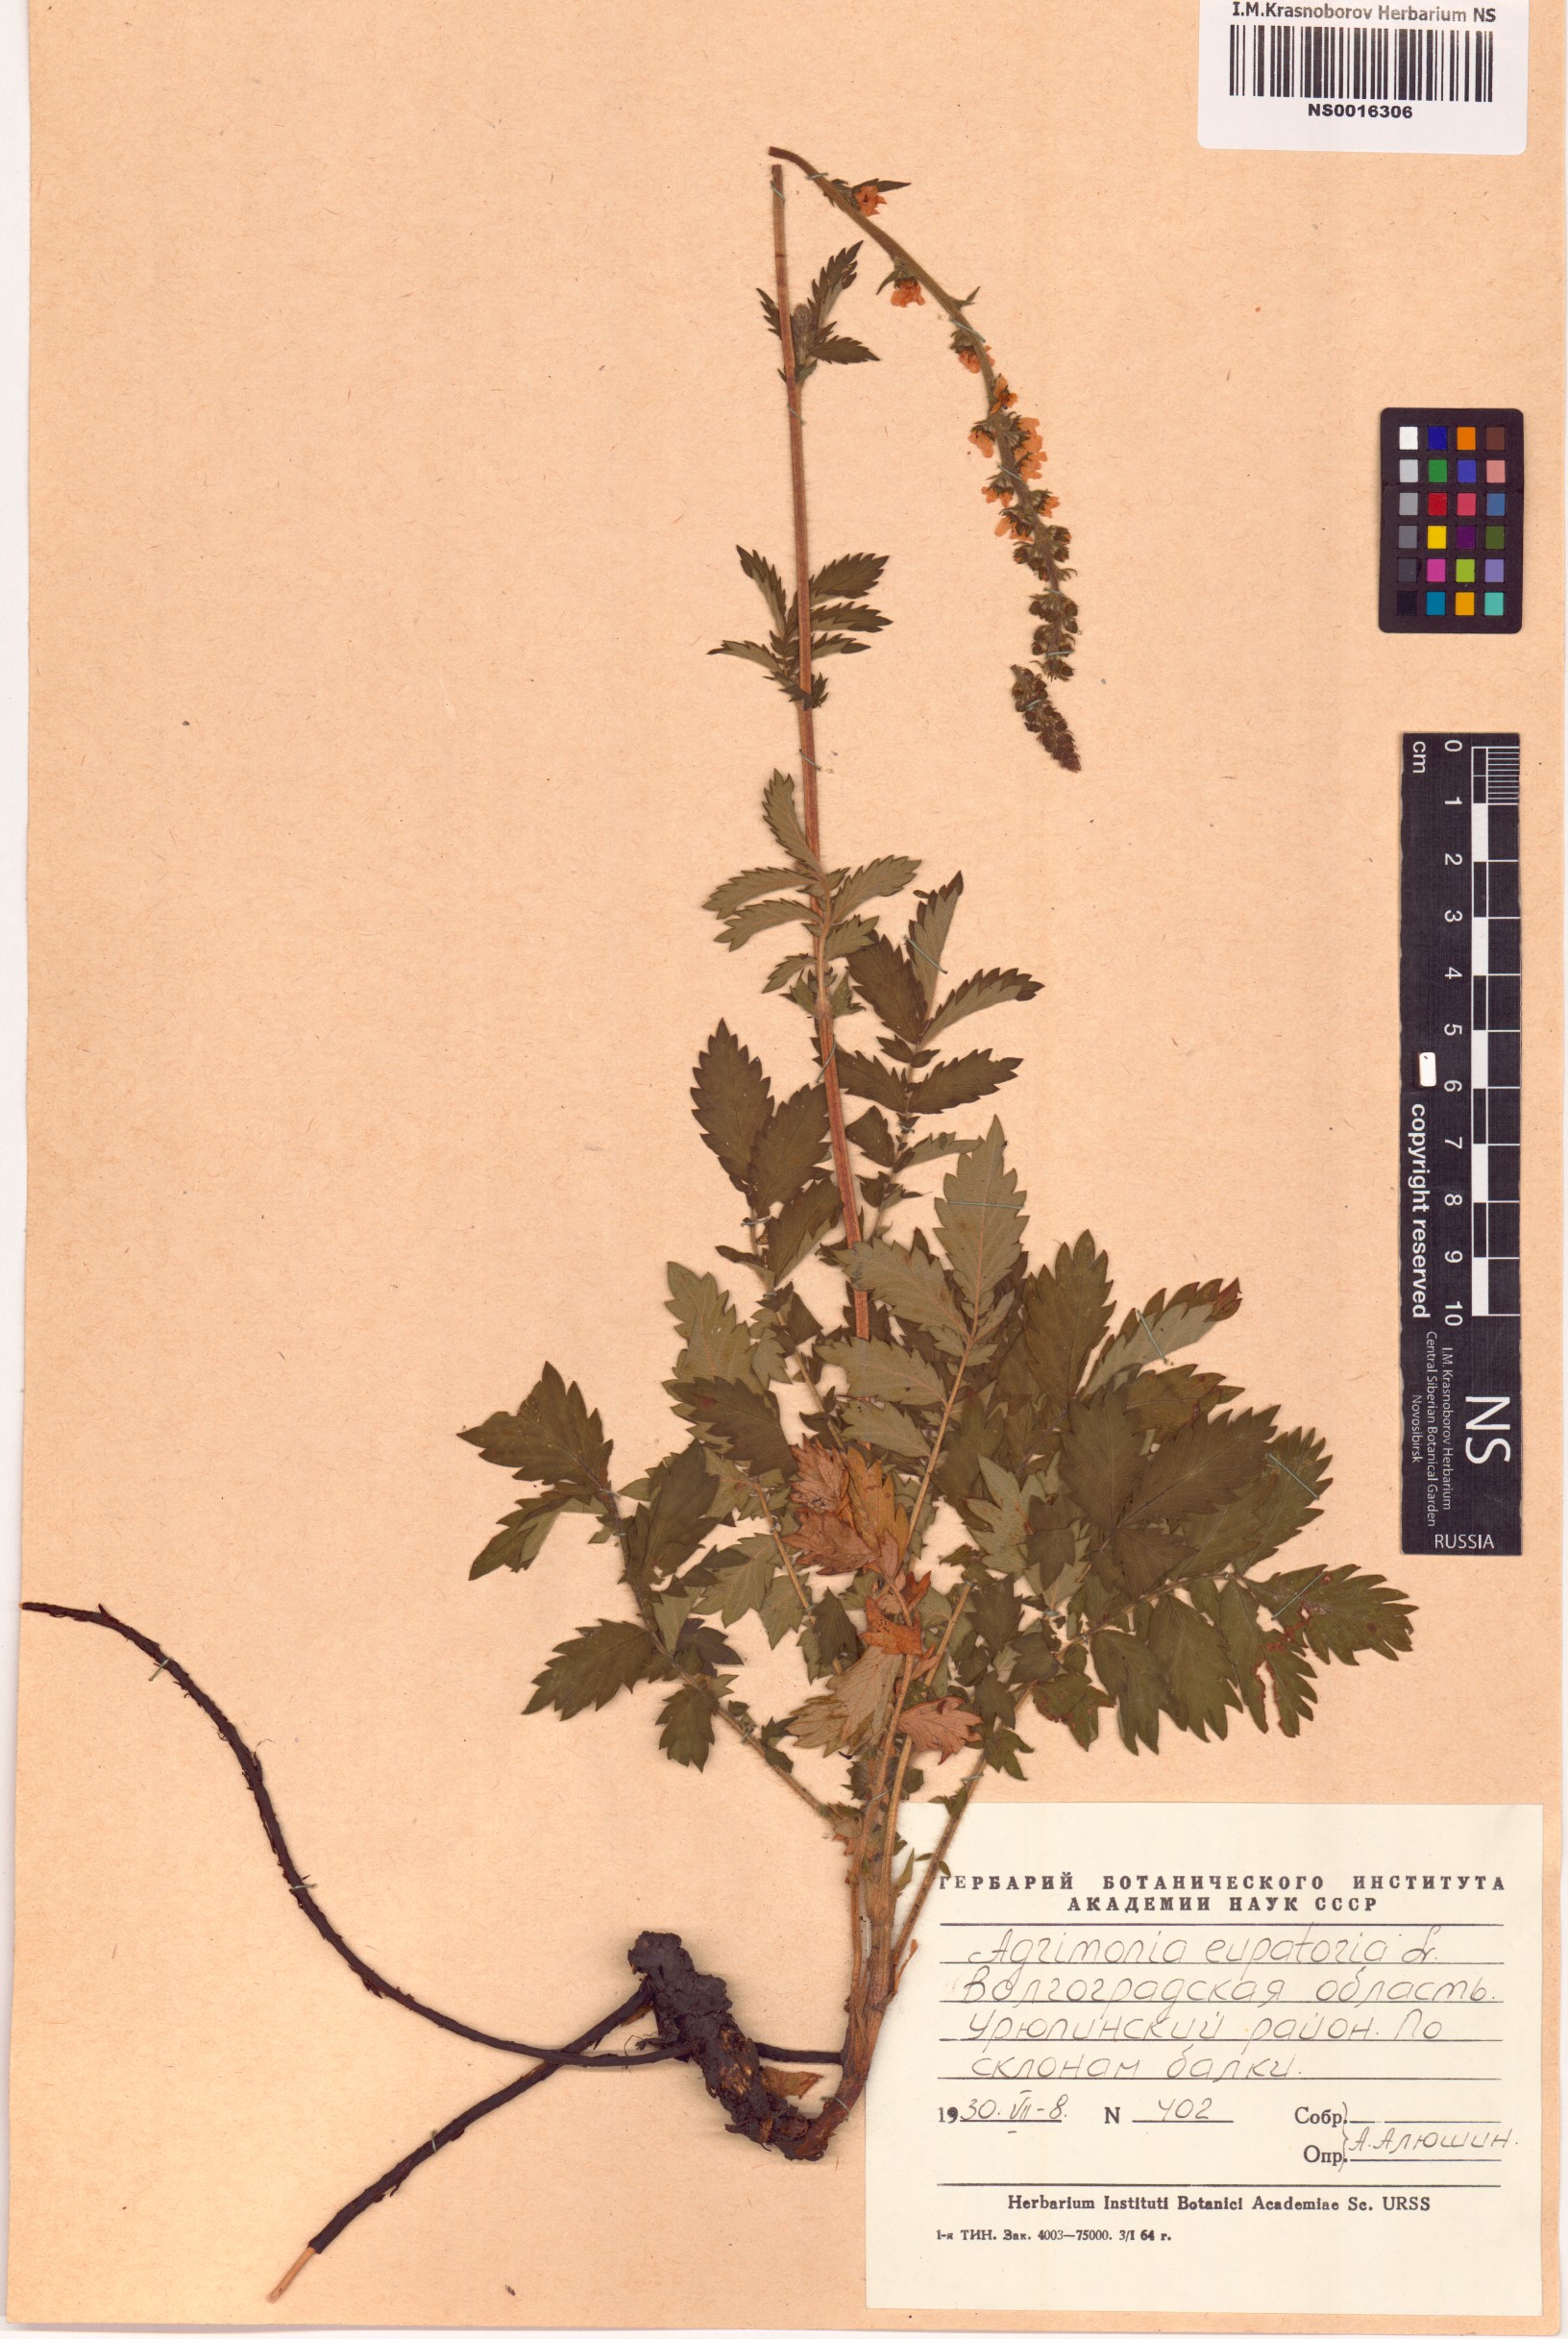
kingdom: Plantae
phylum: Tracheophyta
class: Magnoliopsida
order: Rosales
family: Rosaceae
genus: Agrimonia
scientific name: Agrimonia eupatoria
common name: Agrimony
